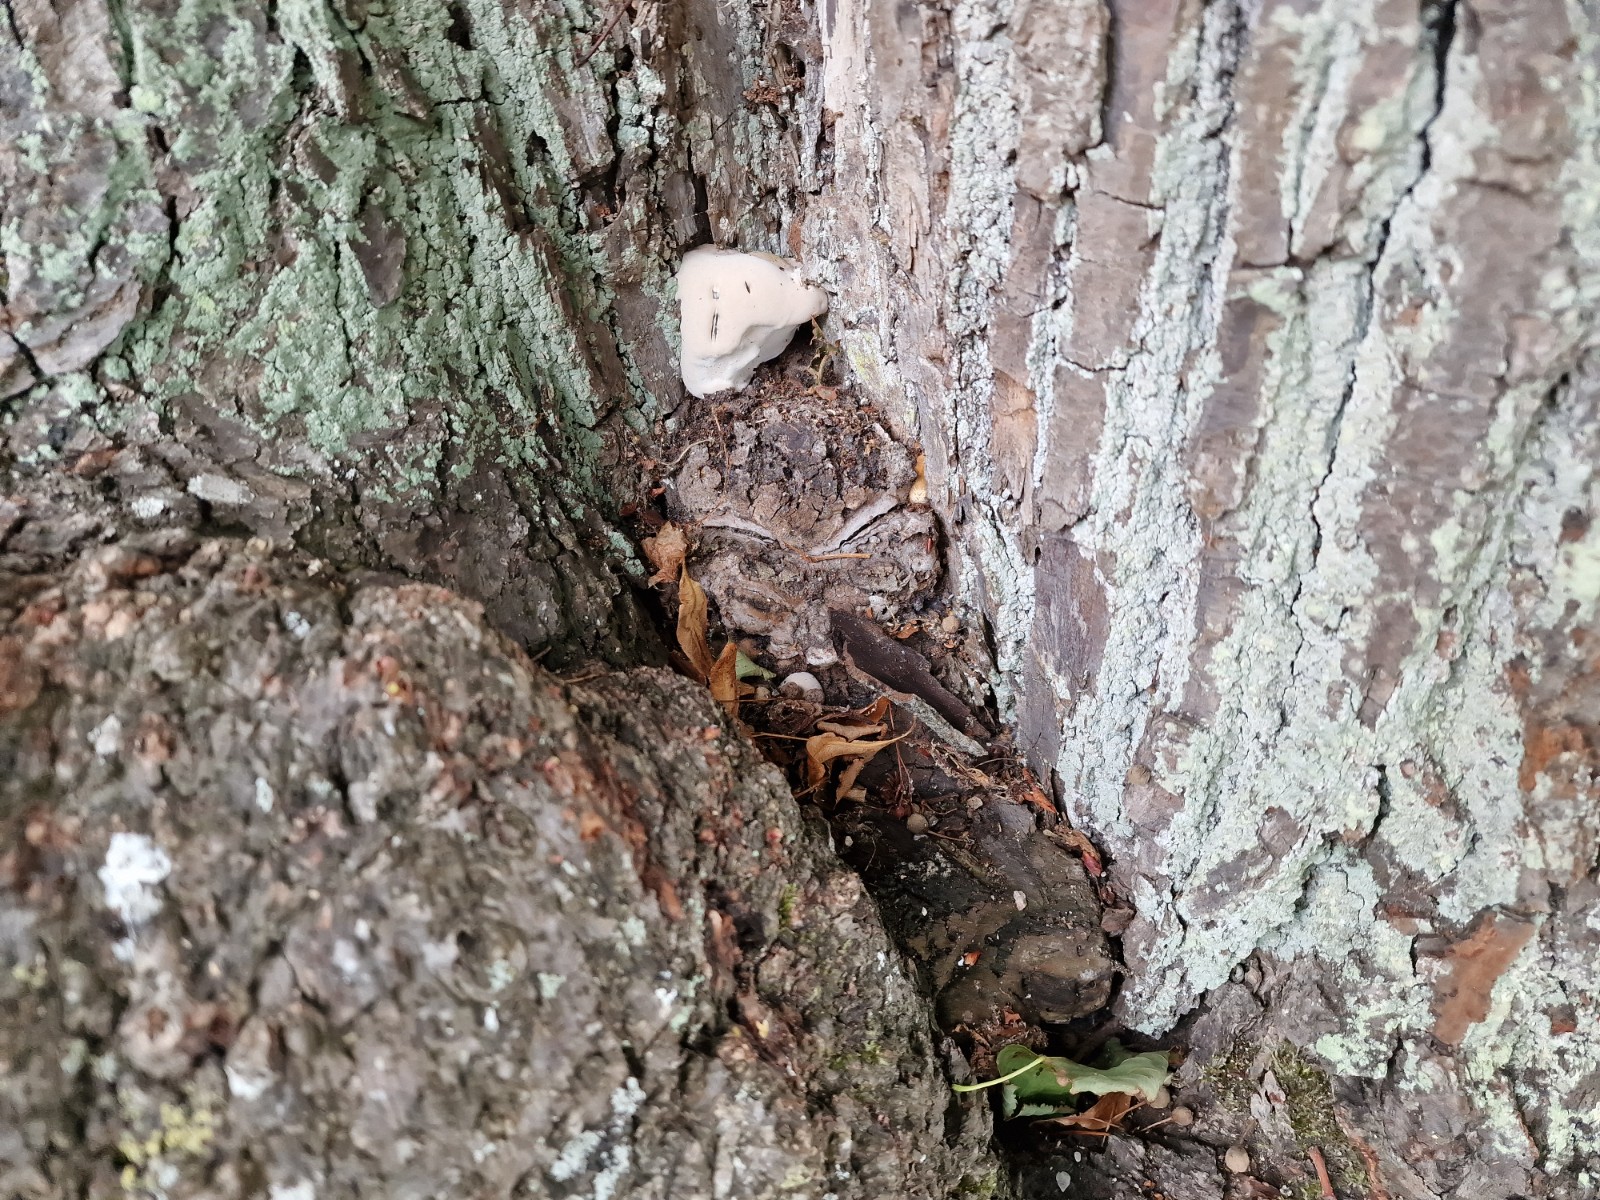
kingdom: Fungi
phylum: Basidiomycota
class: Agaricomycetes
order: Polyporales
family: Polyporaceae
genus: Ganoderma
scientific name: Ganoderma adspersum
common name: grov lakporesvamp
